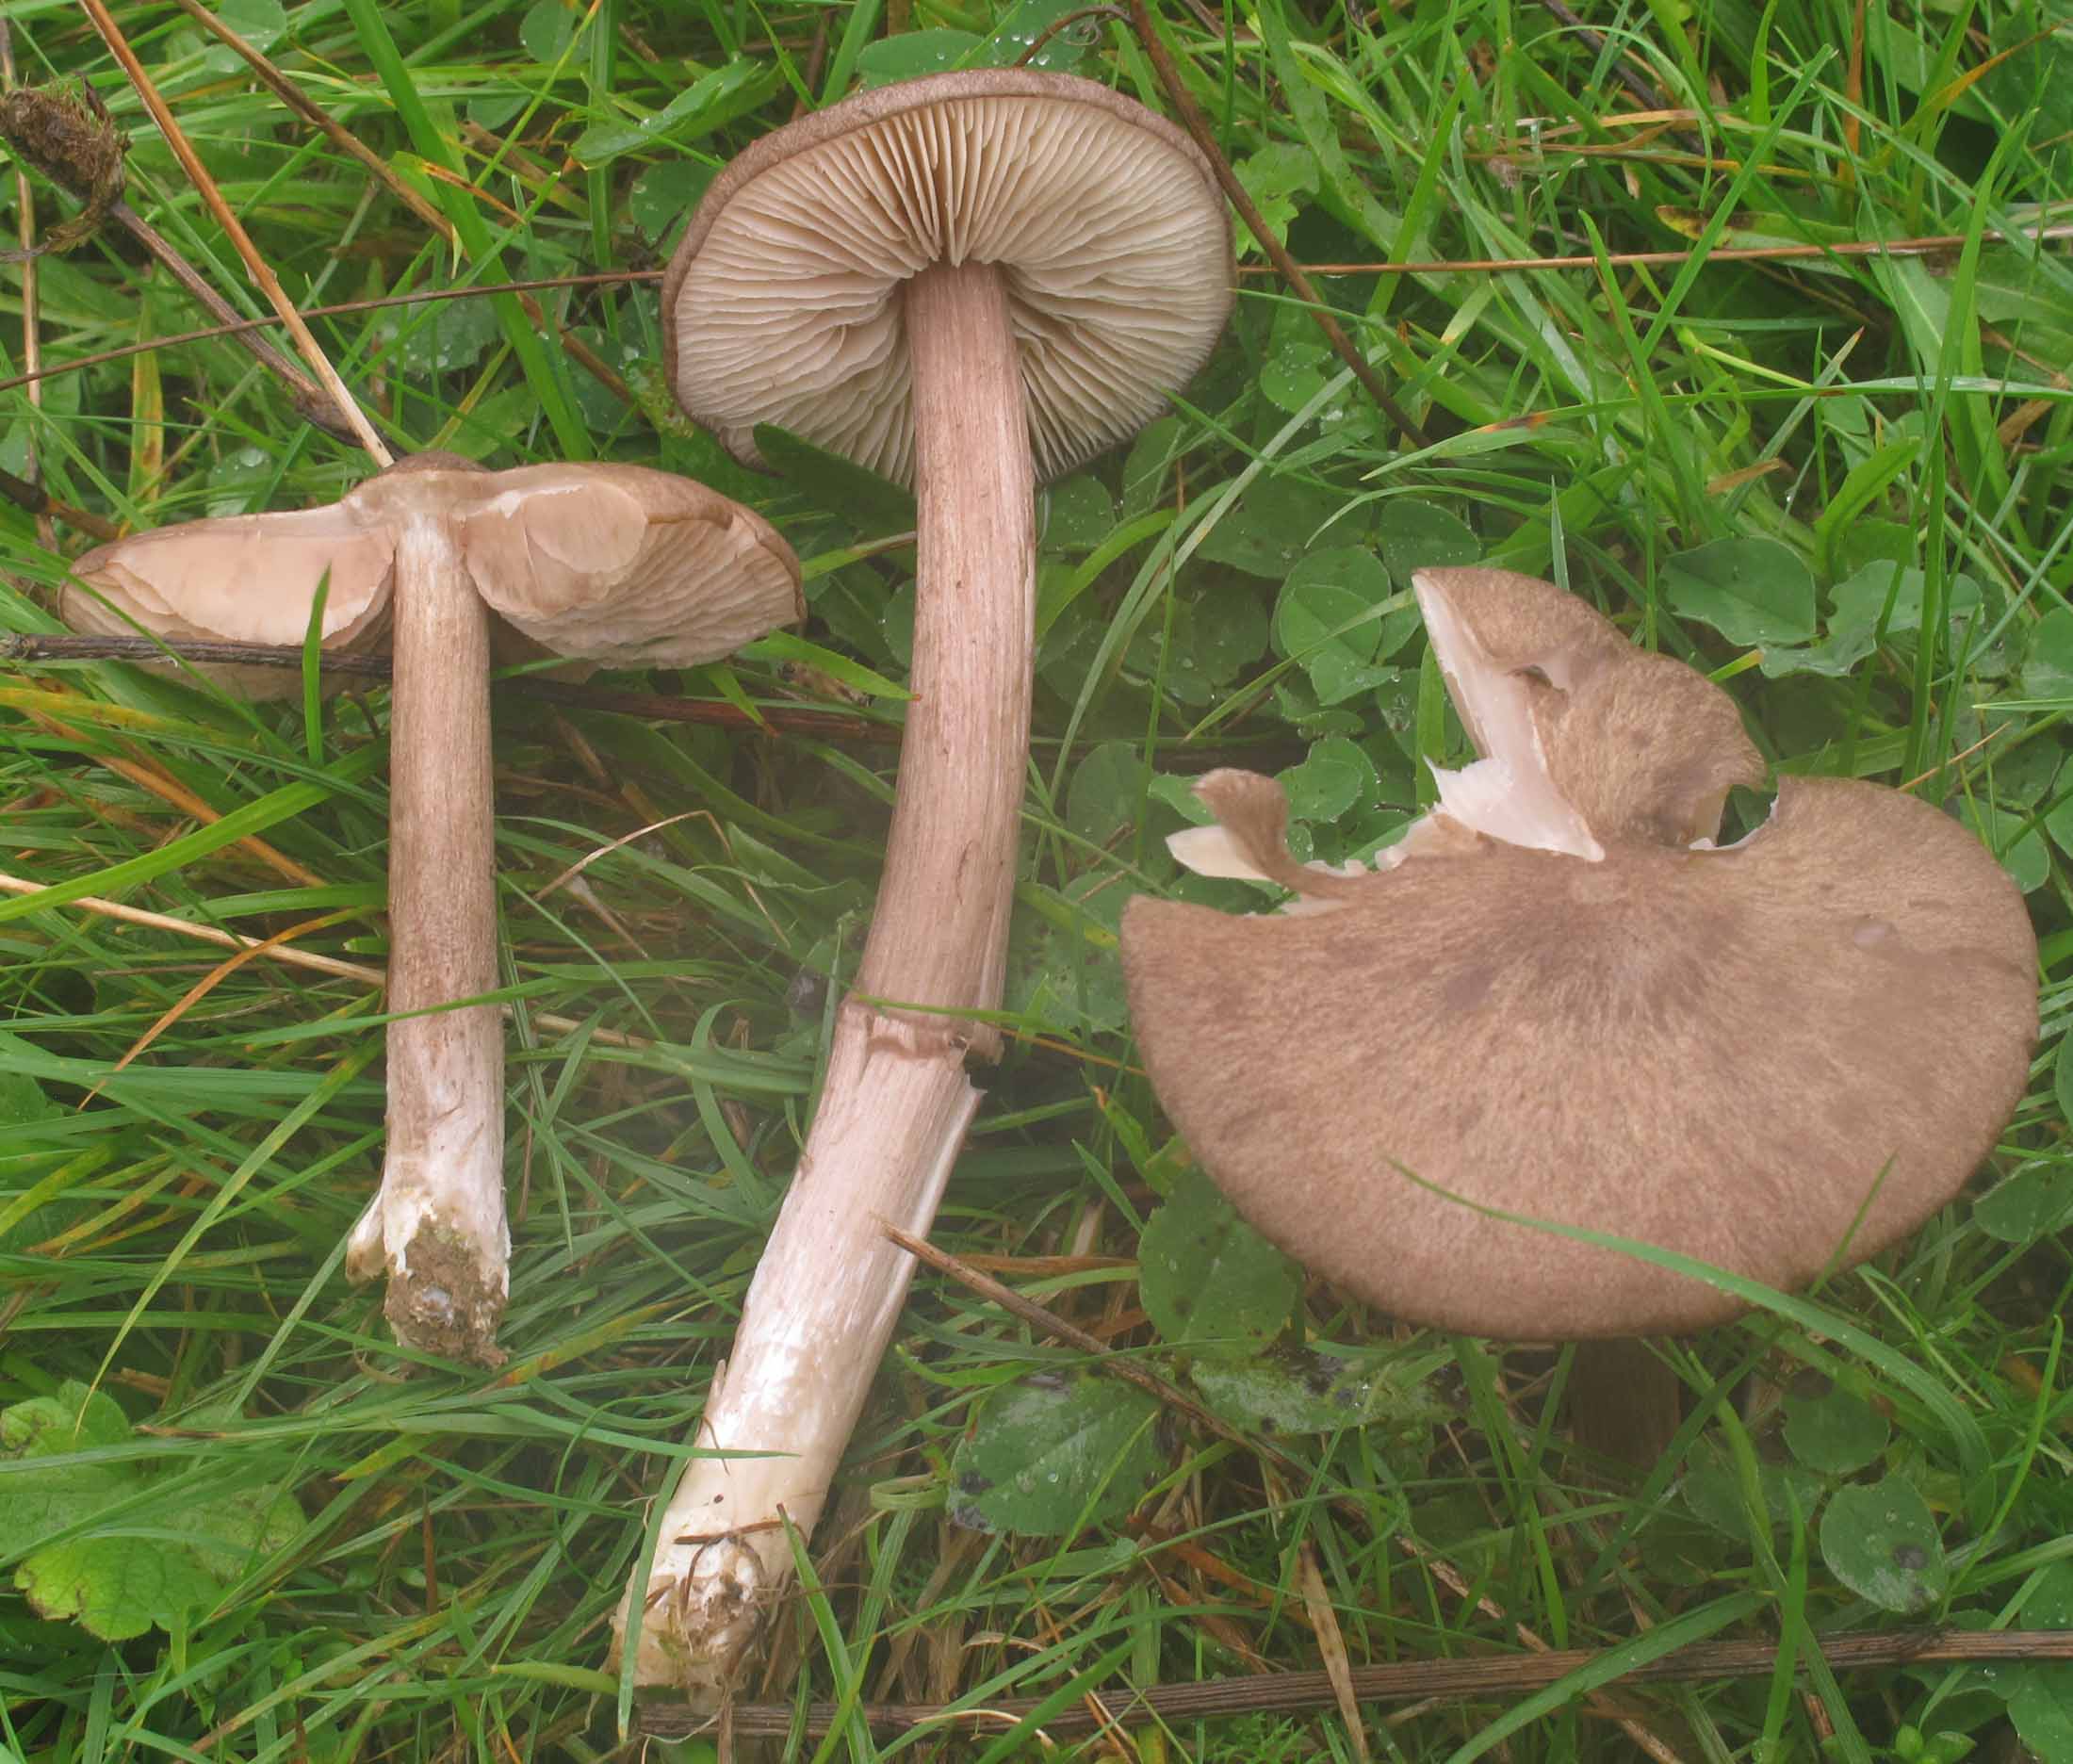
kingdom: Fungi
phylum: Basidiomycota
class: Agaricomycetes
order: Agaricales
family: Entolomataceae
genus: Entoloma
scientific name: Entoloma porphyrophaeum
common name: porfyrbrun rødblad
